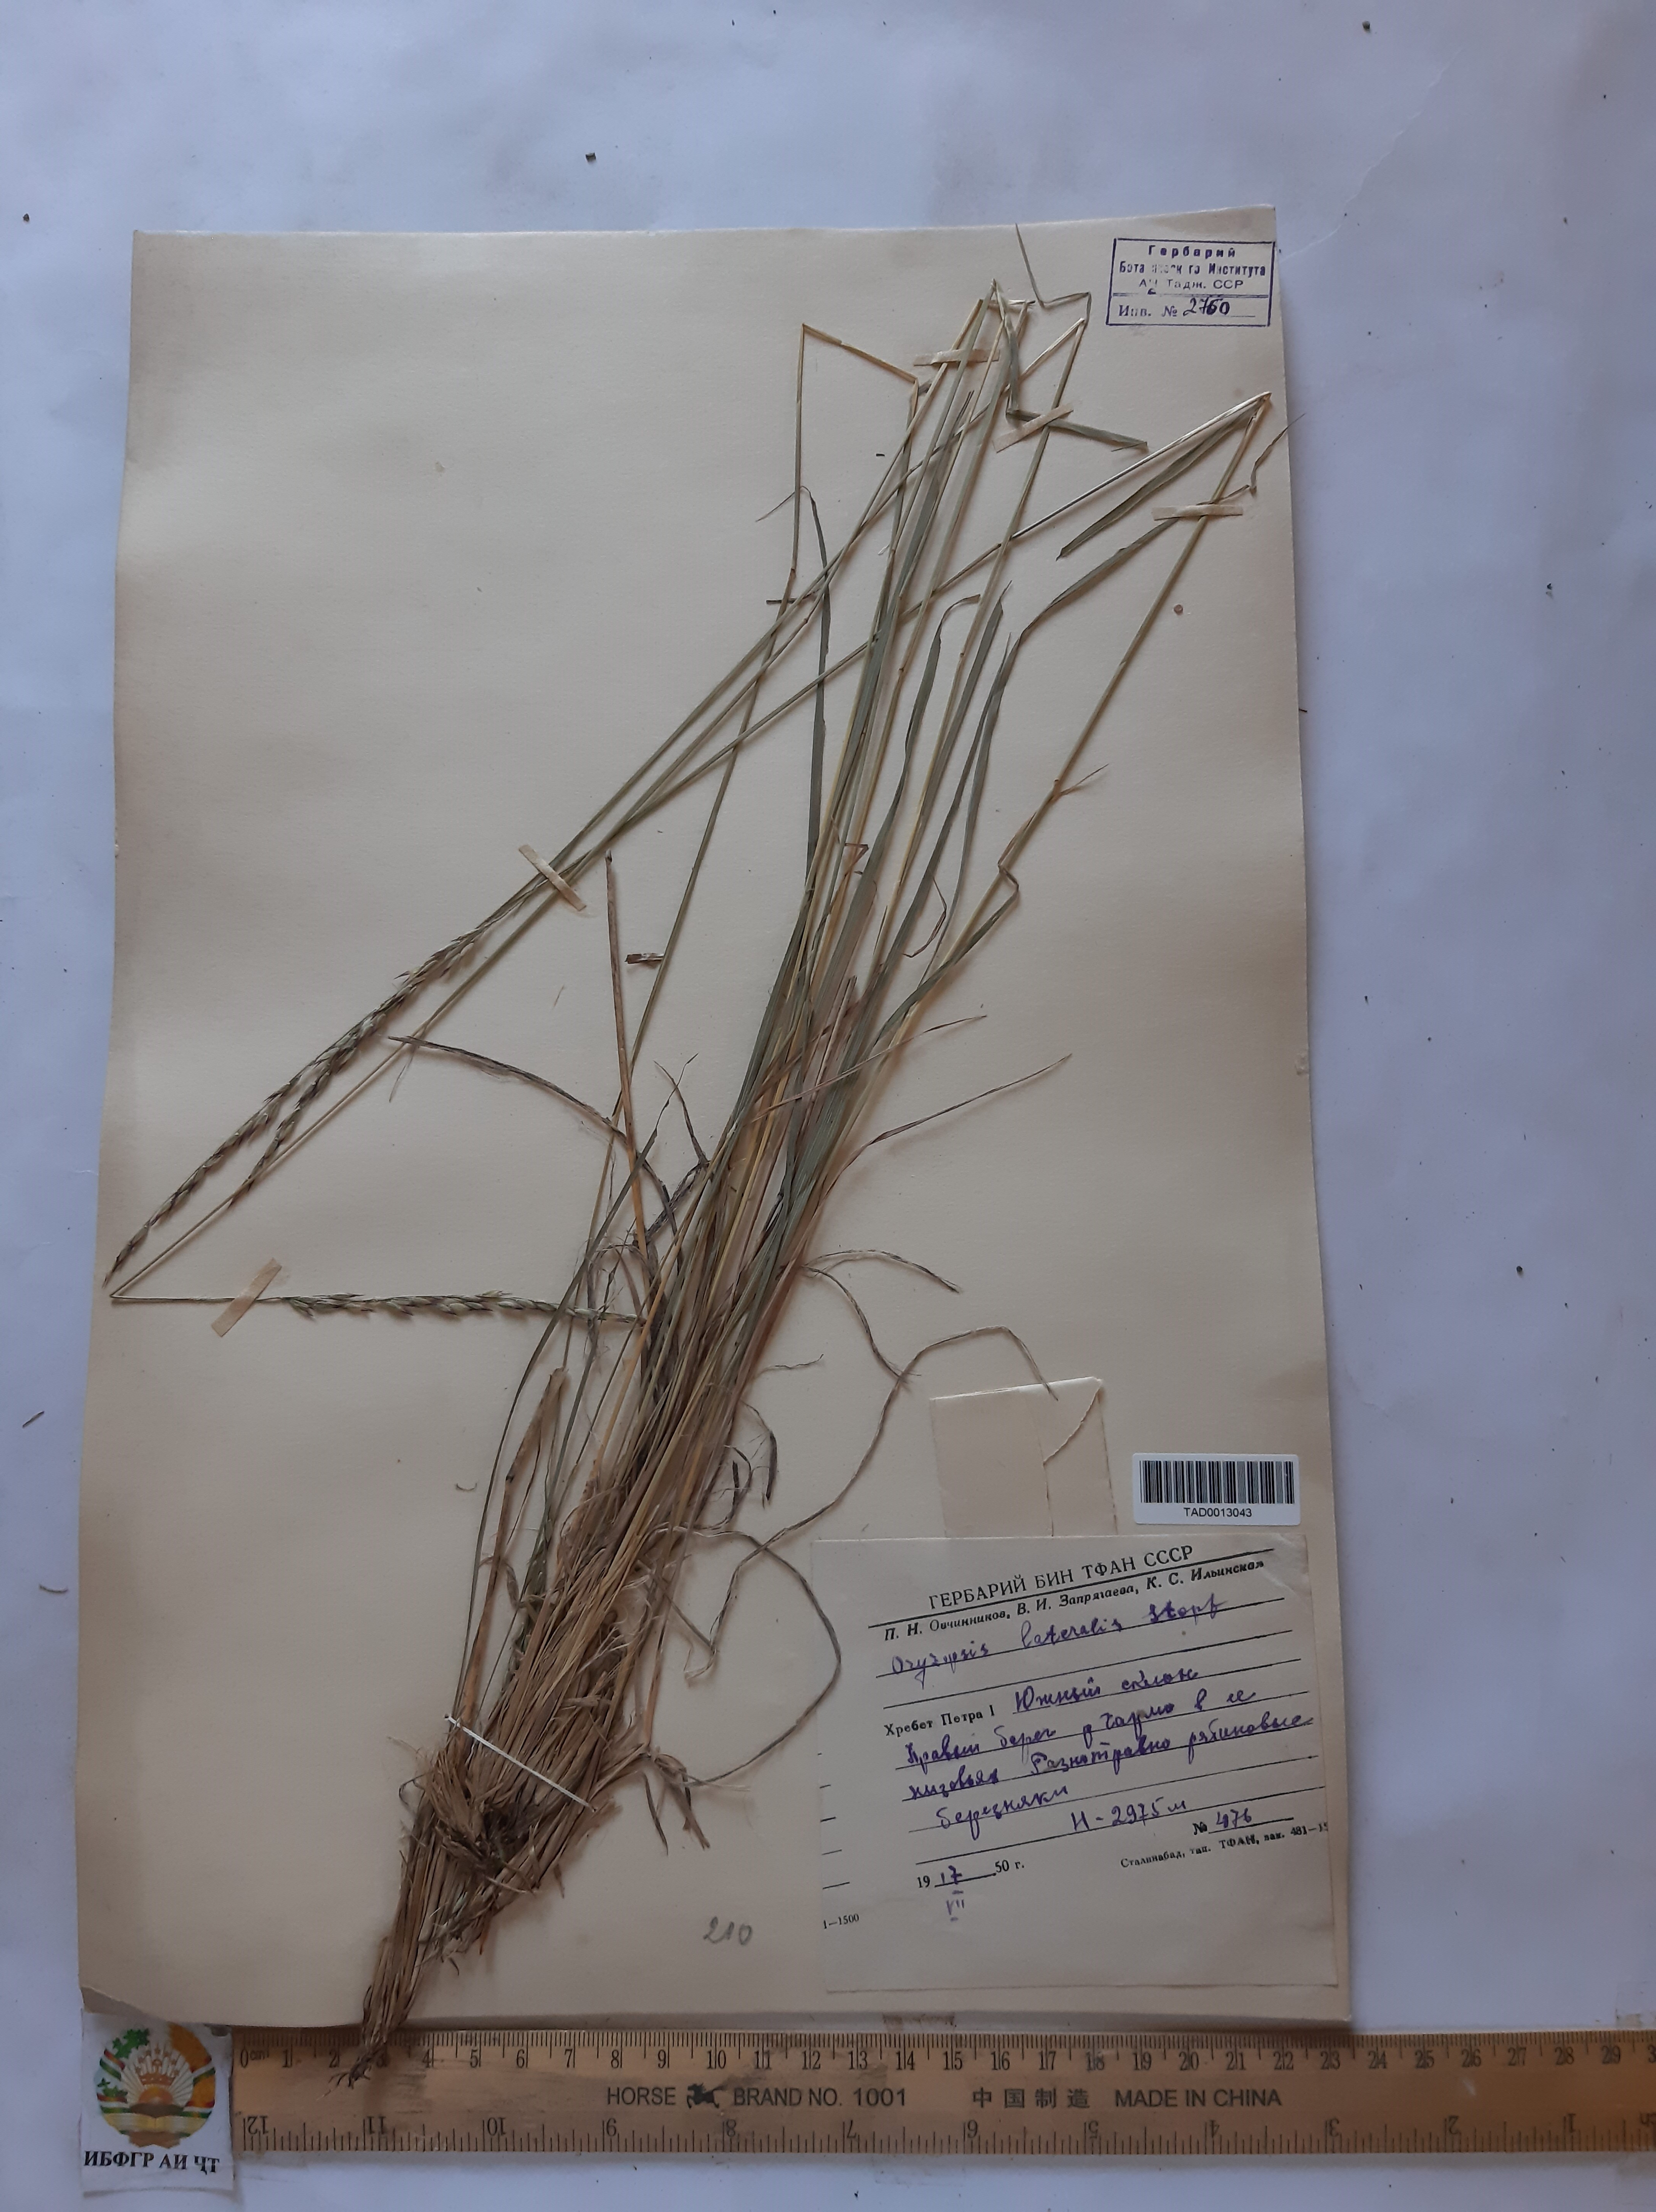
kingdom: Plantae
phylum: Tracheophyta
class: Liliopsida
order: Poales
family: Poaceae
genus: Piptatherum
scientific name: Piptatherum laterale
